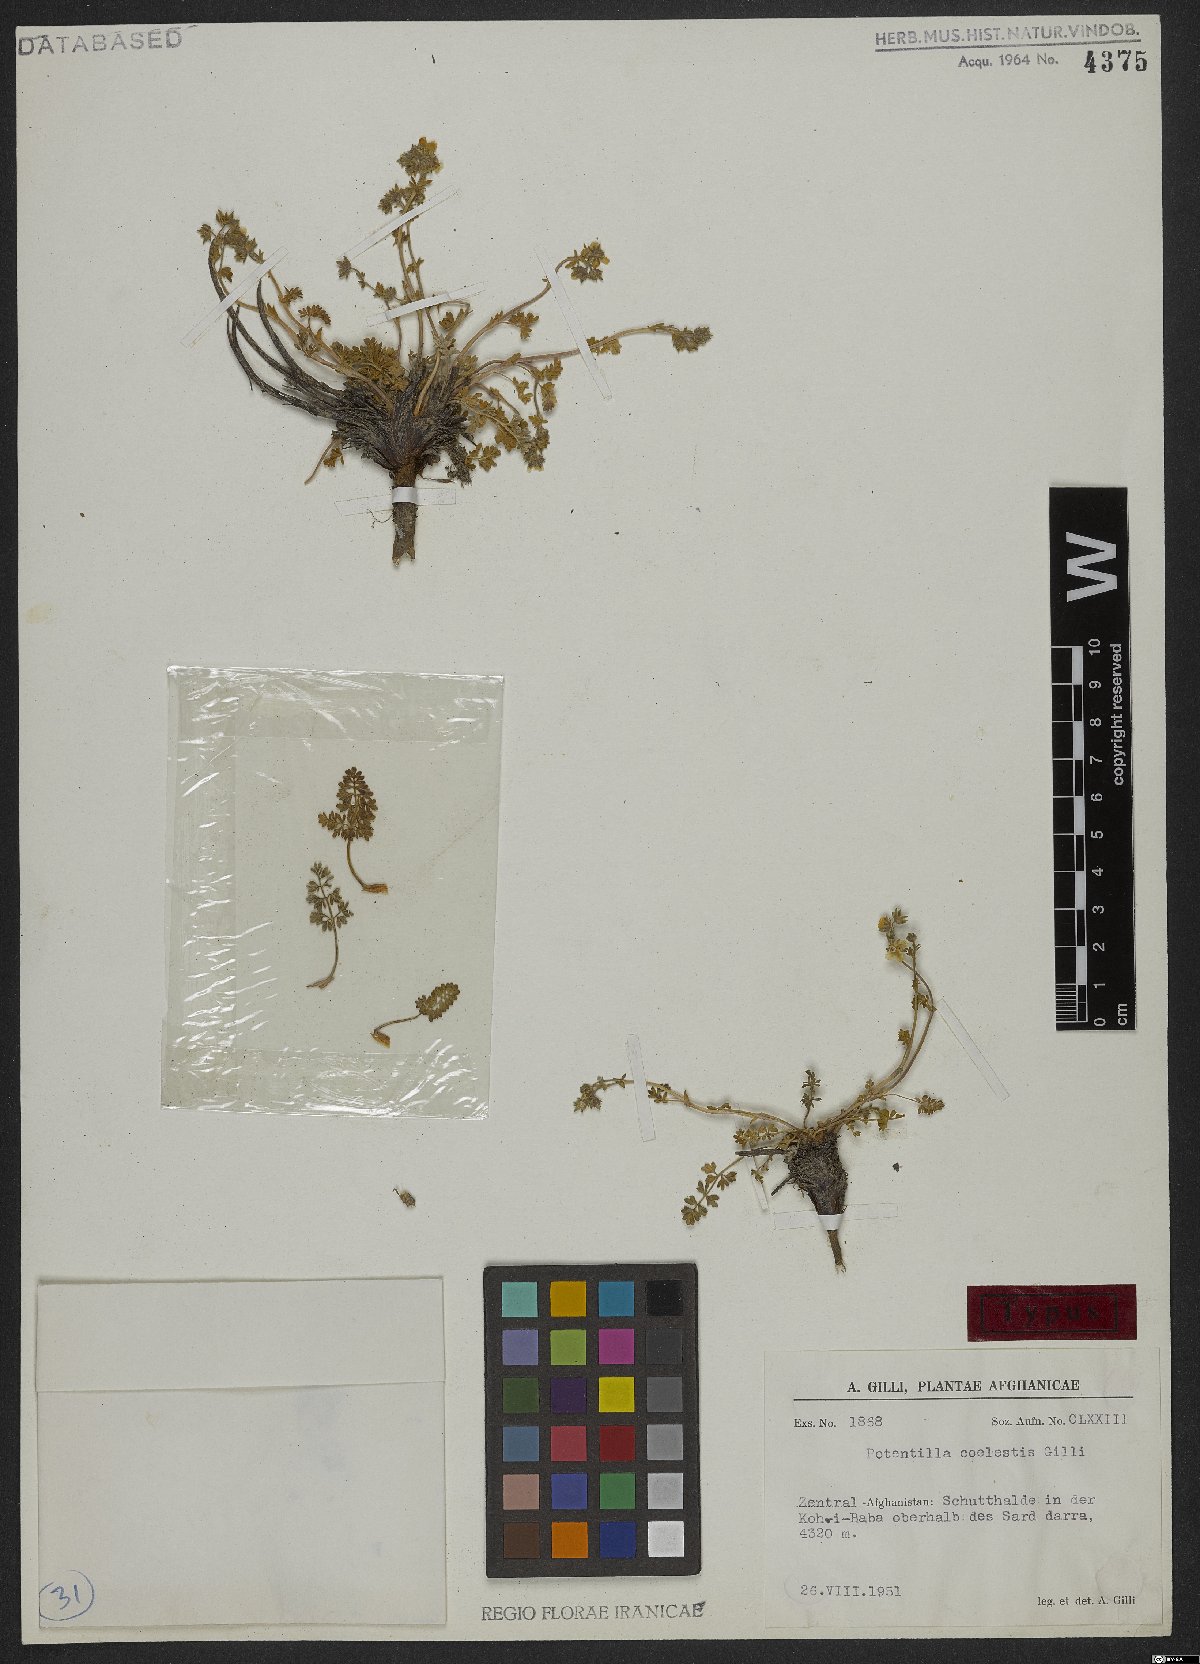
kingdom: Plantae
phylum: Tracheophyta
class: Magnoliopsida
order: Rosales
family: Rosaceae
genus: Potentilla
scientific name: Potentilla coelestis
